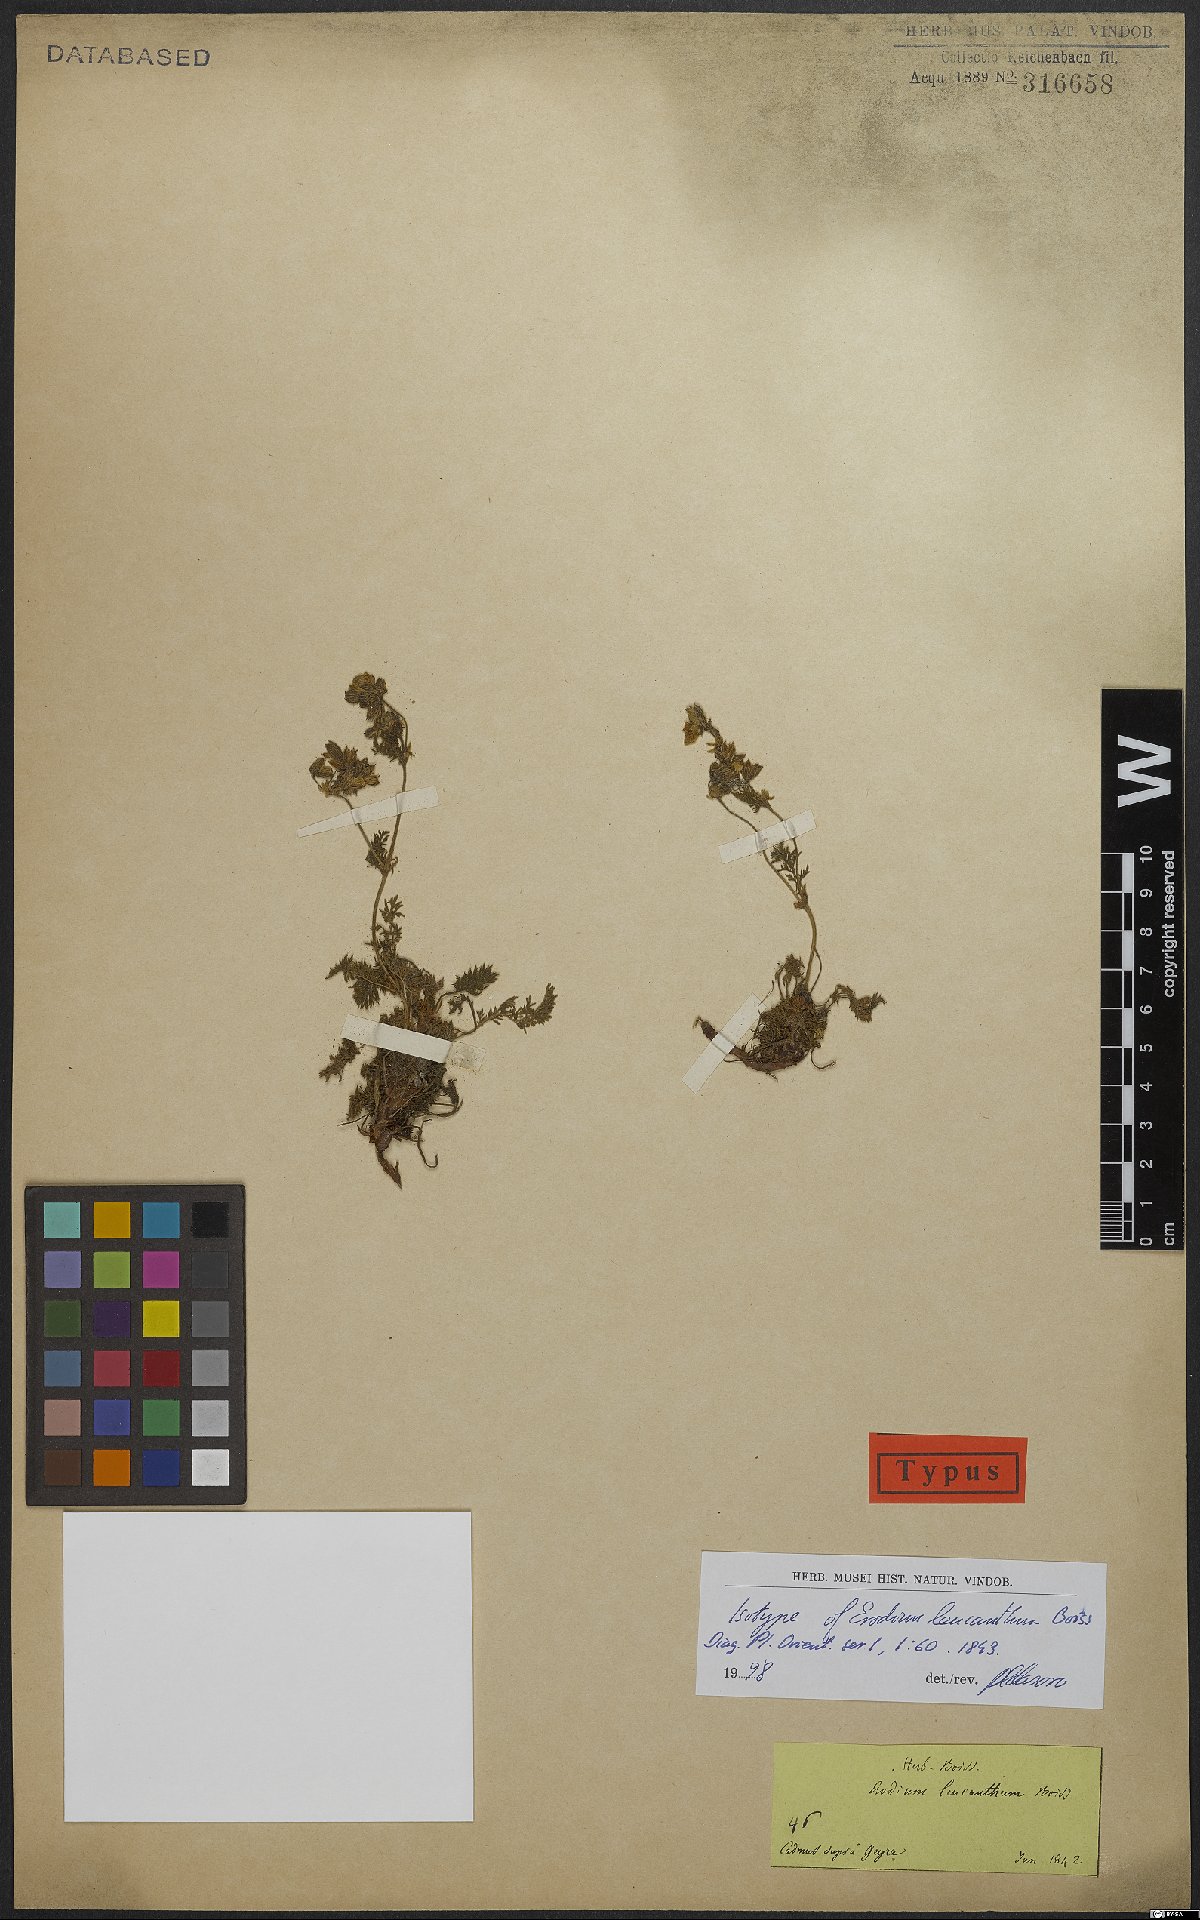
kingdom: Plantae
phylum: Tracheophyta
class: Magnoliopsida
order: Geraniales
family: Geraniaceae
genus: Erodium
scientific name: Erodium trichomanifolium
